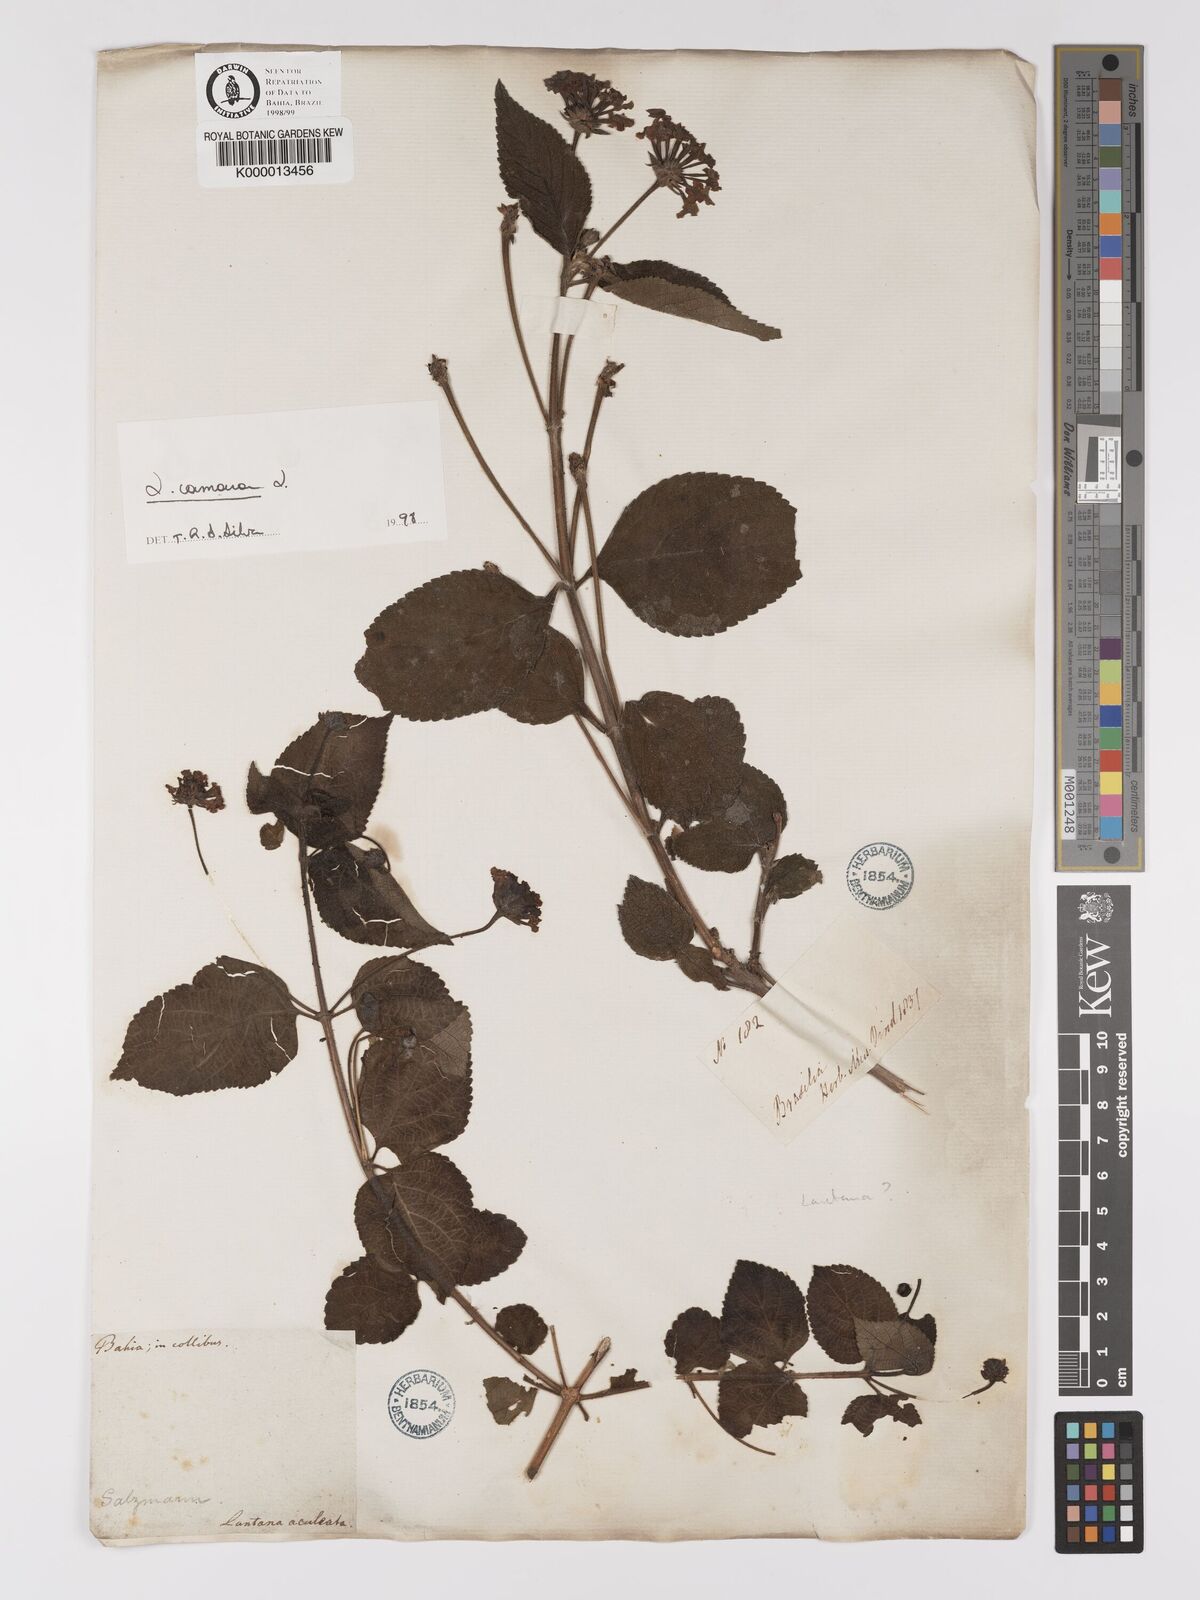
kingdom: Plantae
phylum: Tracheophyta
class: Magnoliopsida
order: Lamiales
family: Verbenaceae
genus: Lantana
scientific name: Lantana camara
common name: Lantana
